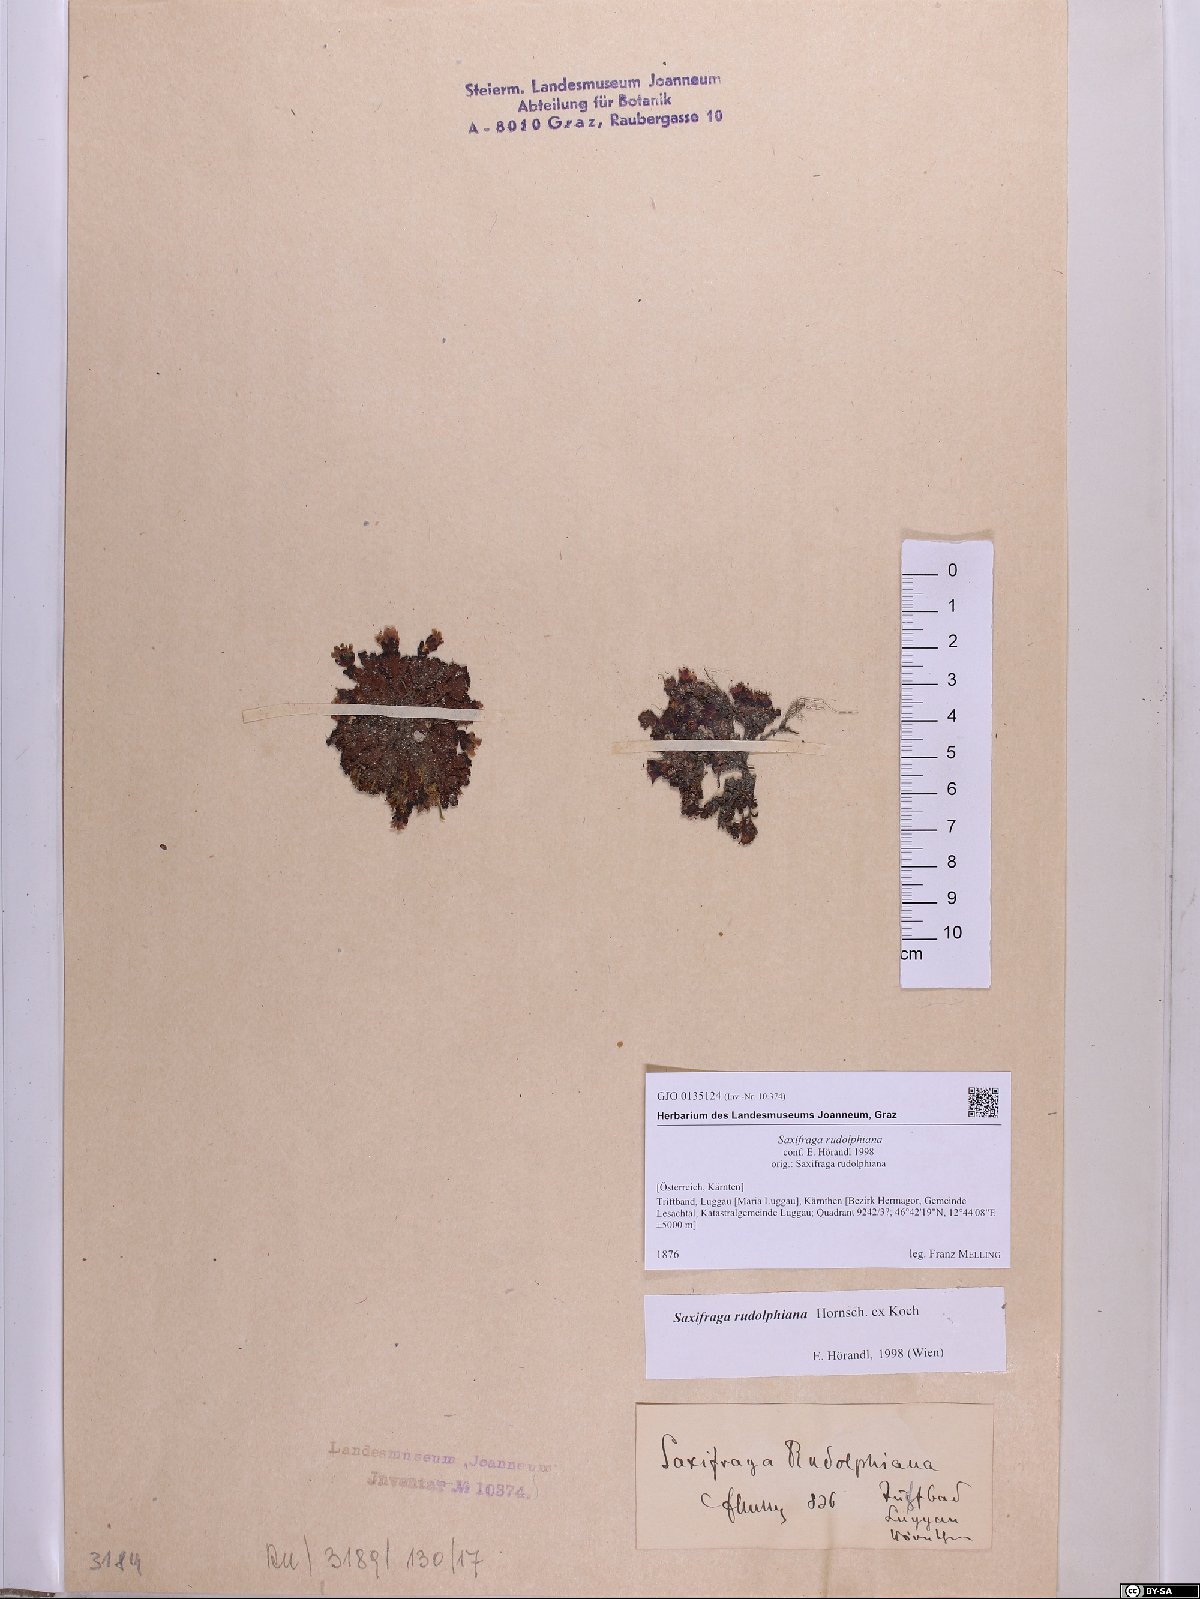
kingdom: Plantae
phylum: Tracheophyta
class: Magnoliopsida
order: Saxifragales
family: Saxifragaceae
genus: Saxifraga
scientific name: Saxifraga oppositifolia
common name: Purple saxifrage
